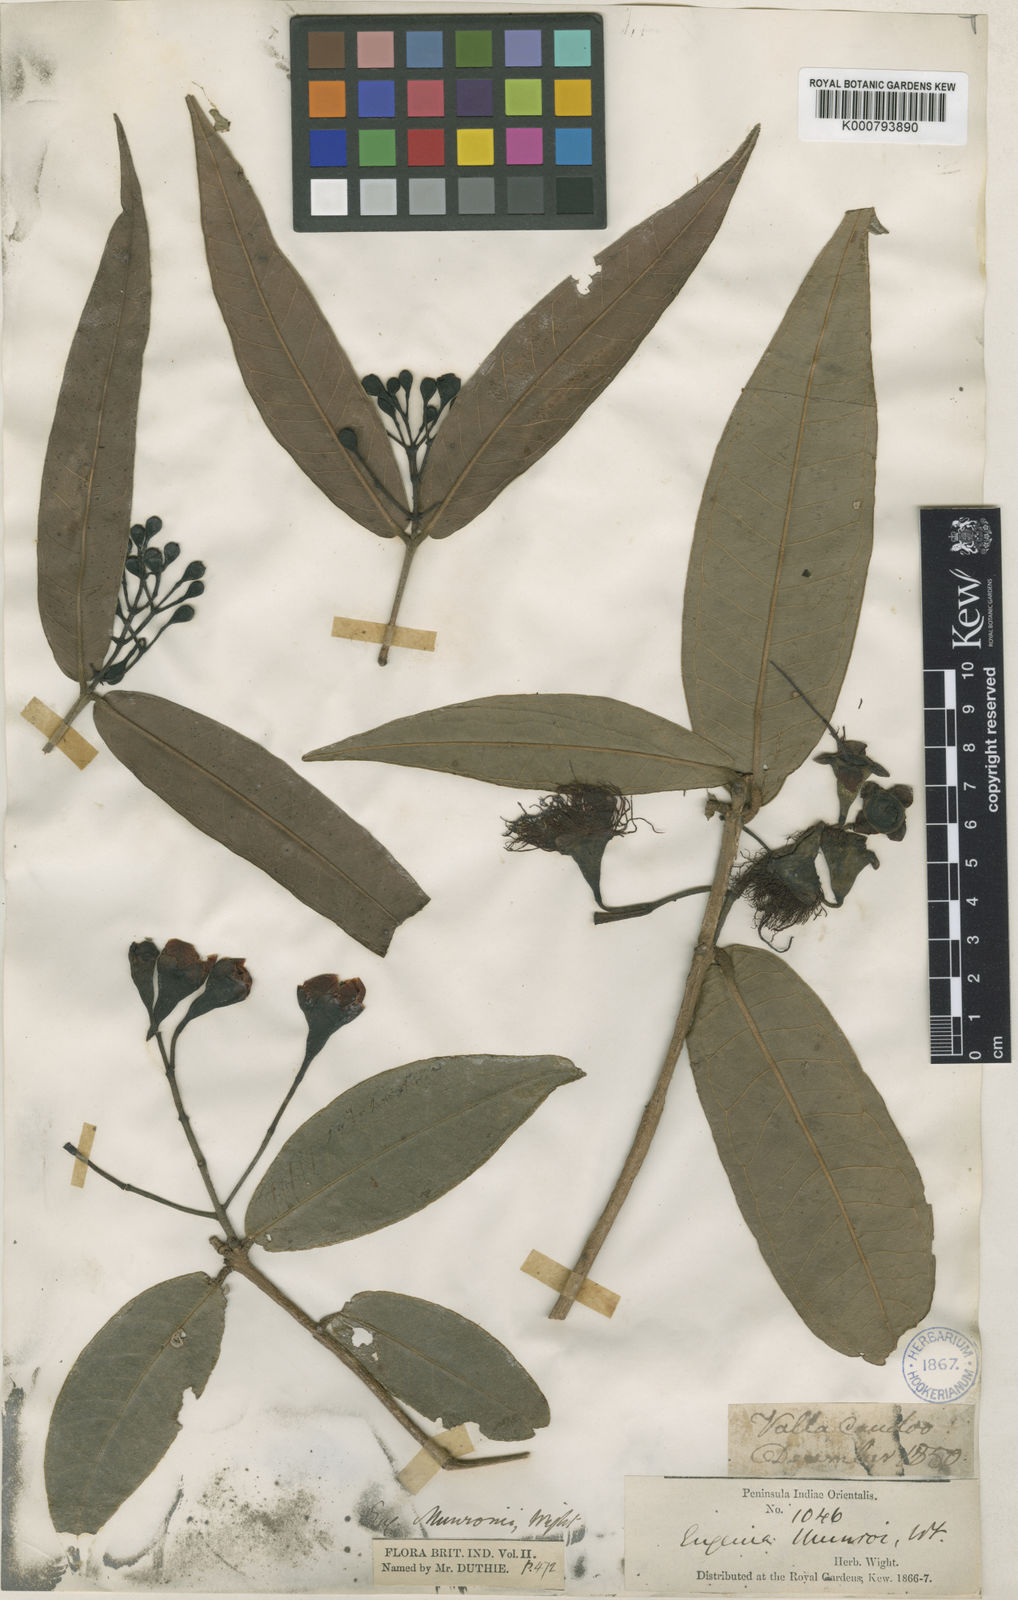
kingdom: Plantae
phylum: Tracheophyta
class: Magnoliopsida
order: Myrtales
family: Myrtaceae
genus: Syzygium
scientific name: Syzygium
